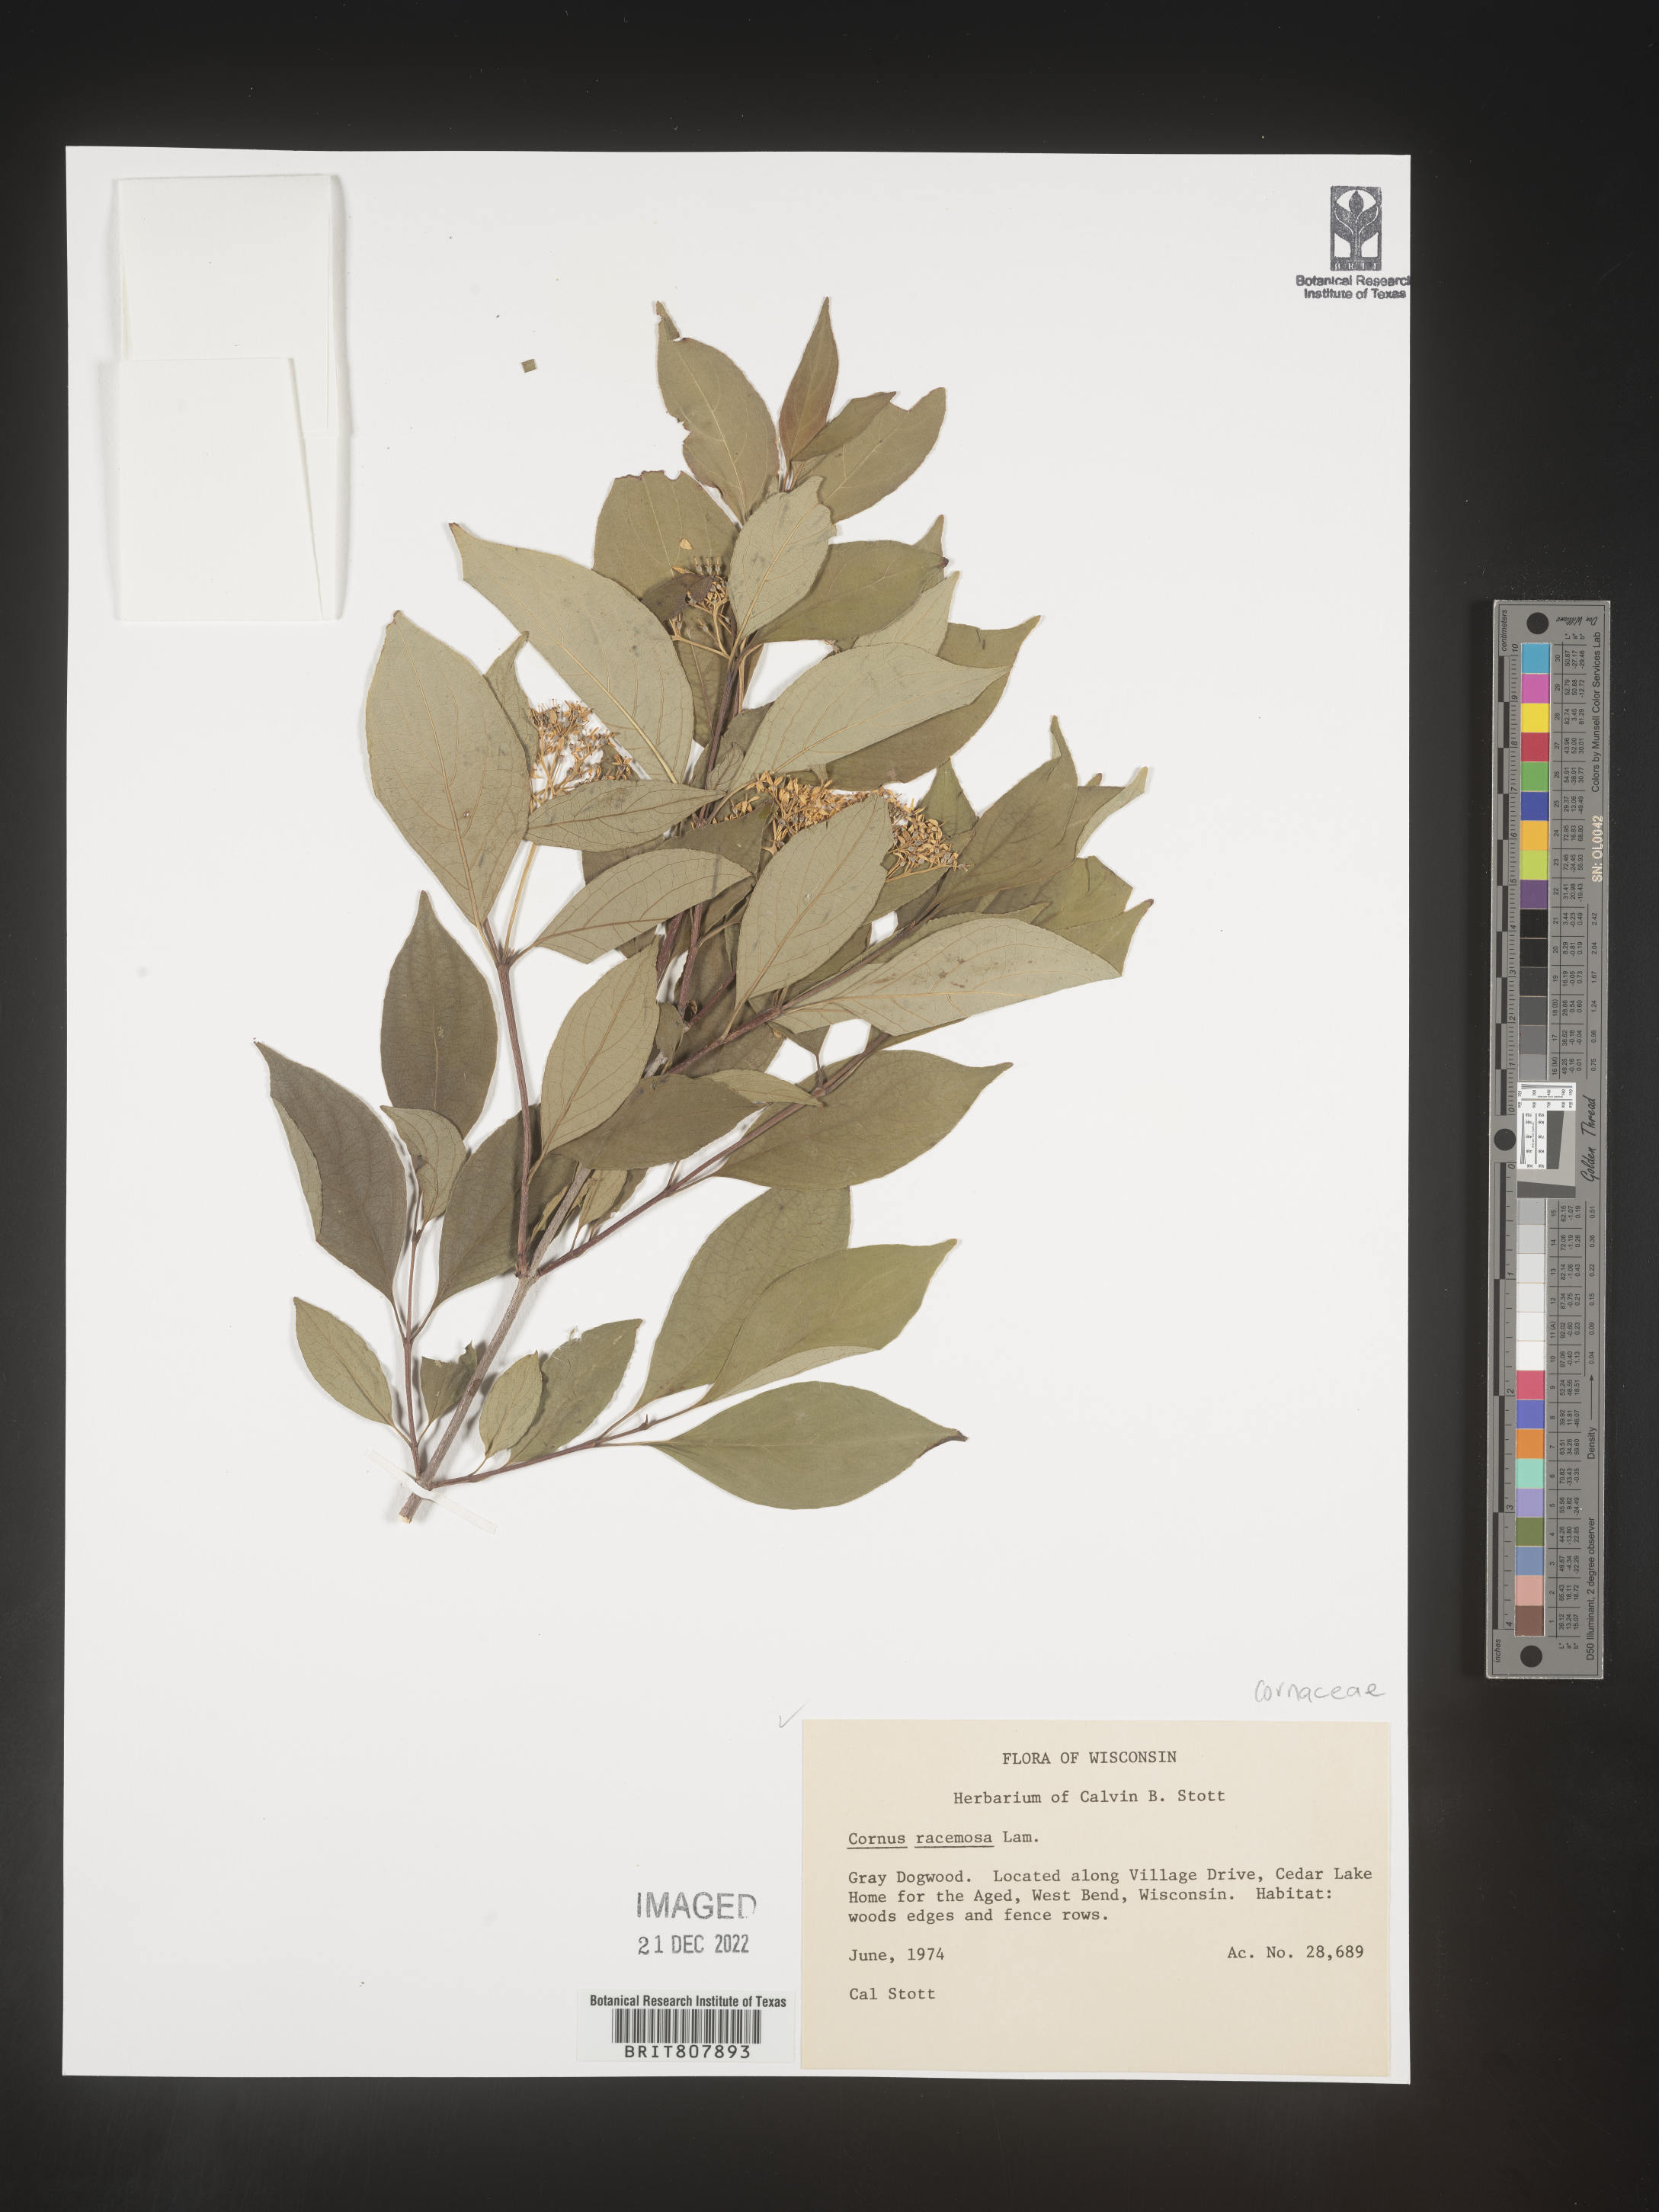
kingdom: Plantae
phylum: Tracheophyta
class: Magnoliopsida
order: Cornales
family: Cornaceae
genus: Cornus
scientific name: Cornus racemosa
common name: Panicled dogwood
